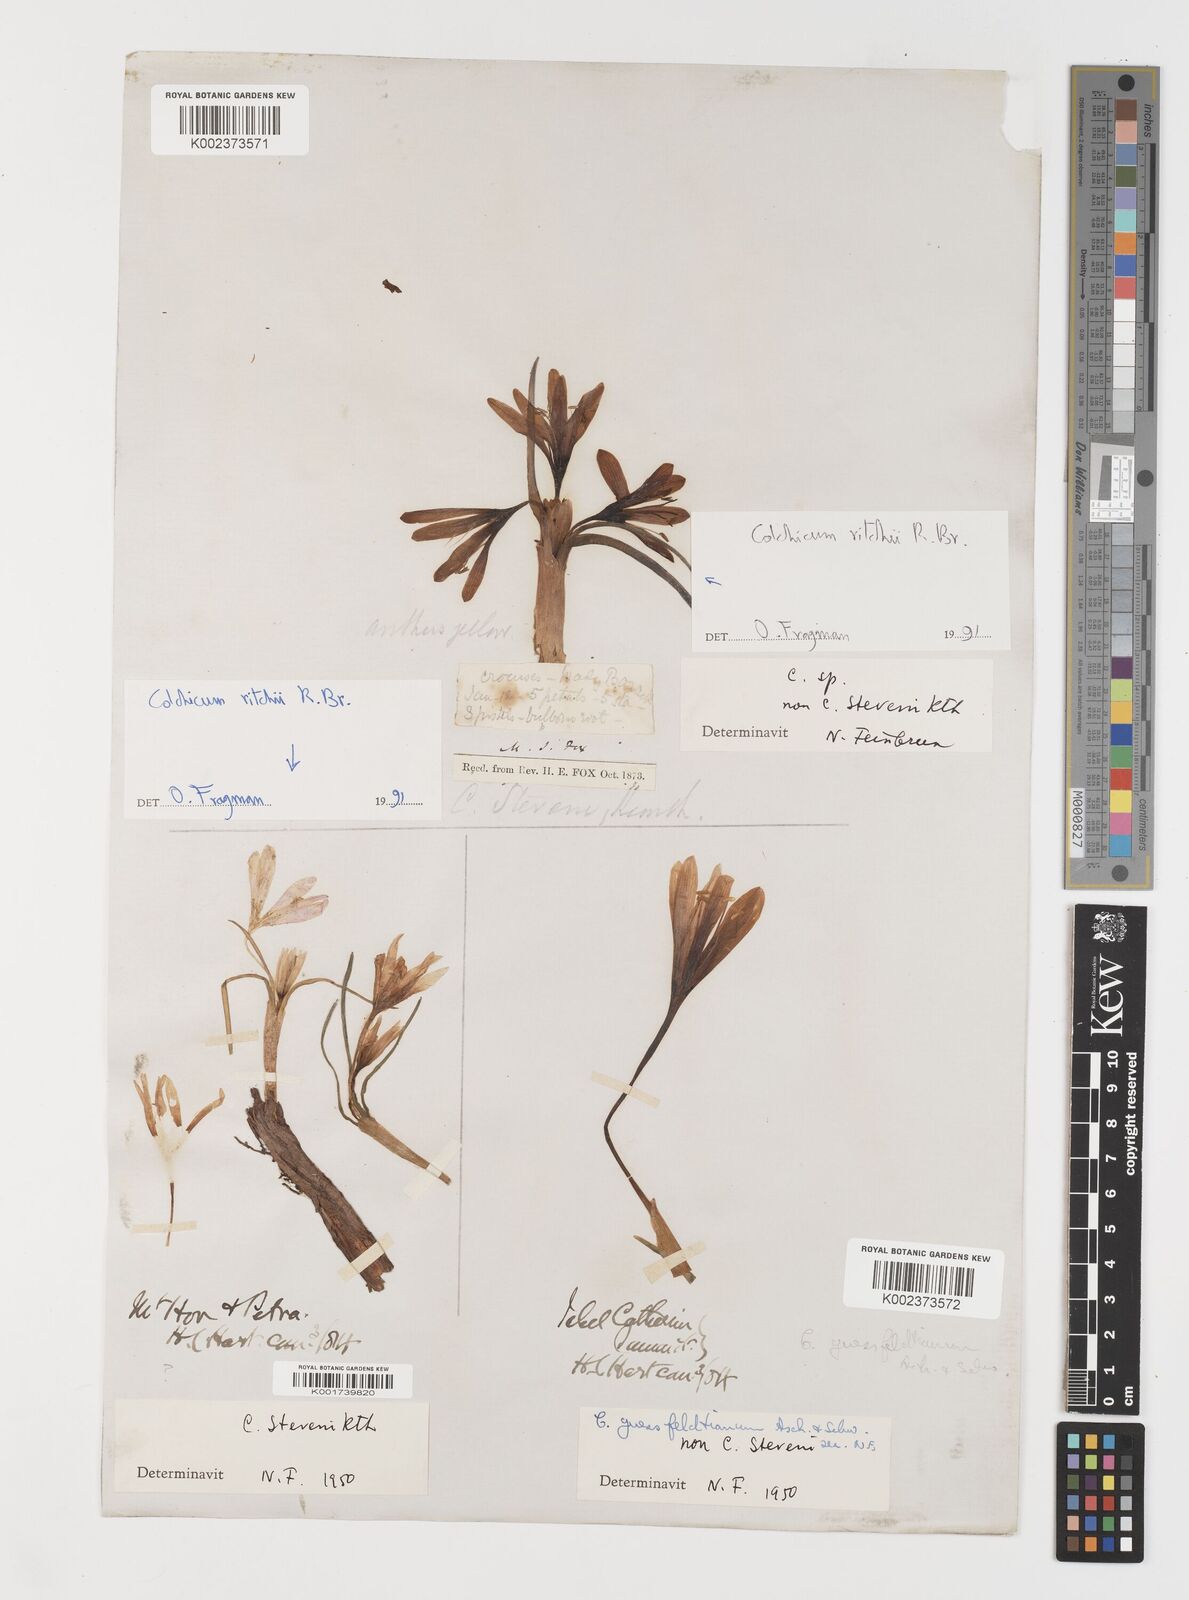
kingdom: Plantae
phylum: Tracheophyta
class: Liliopsida
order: Liliales
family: Colchicaceae
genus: Colchicum
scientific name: Colchicum ritchii
